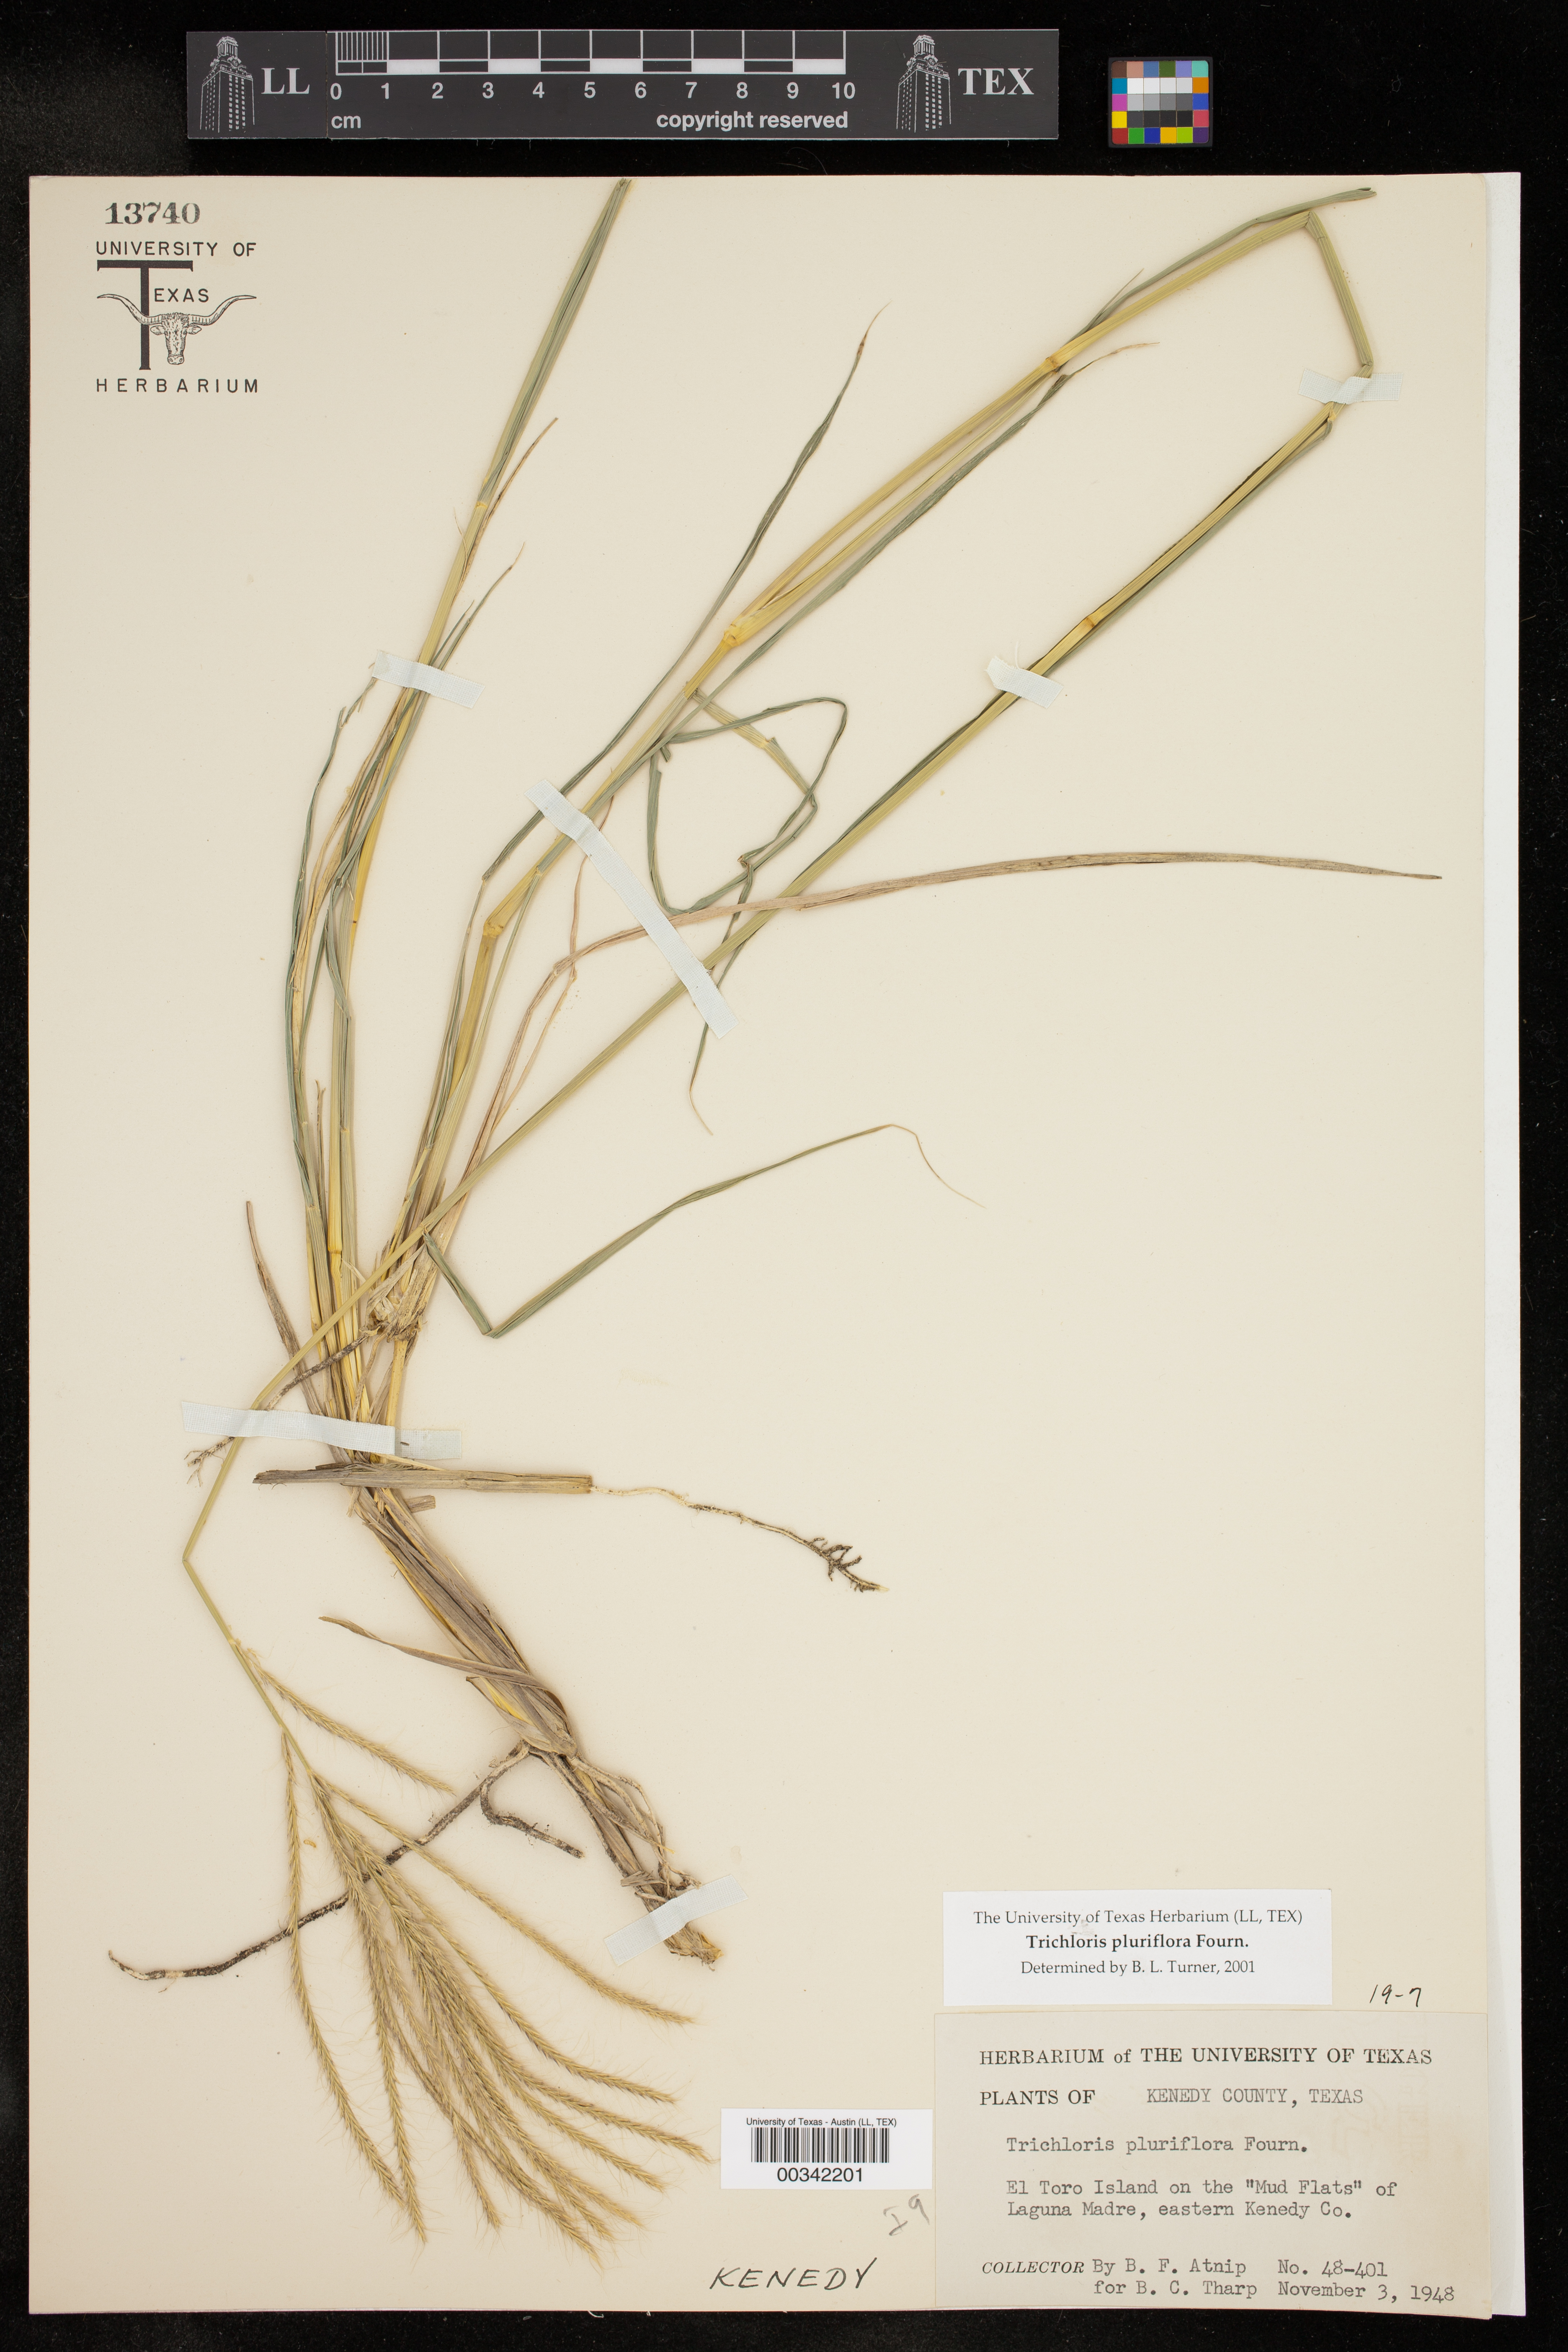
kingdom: Plantae
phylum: Tracheophyta
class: Liliopsida
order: Poales
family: Poaceae
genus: Leptochloa
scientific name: Leptochloa pluriflora
